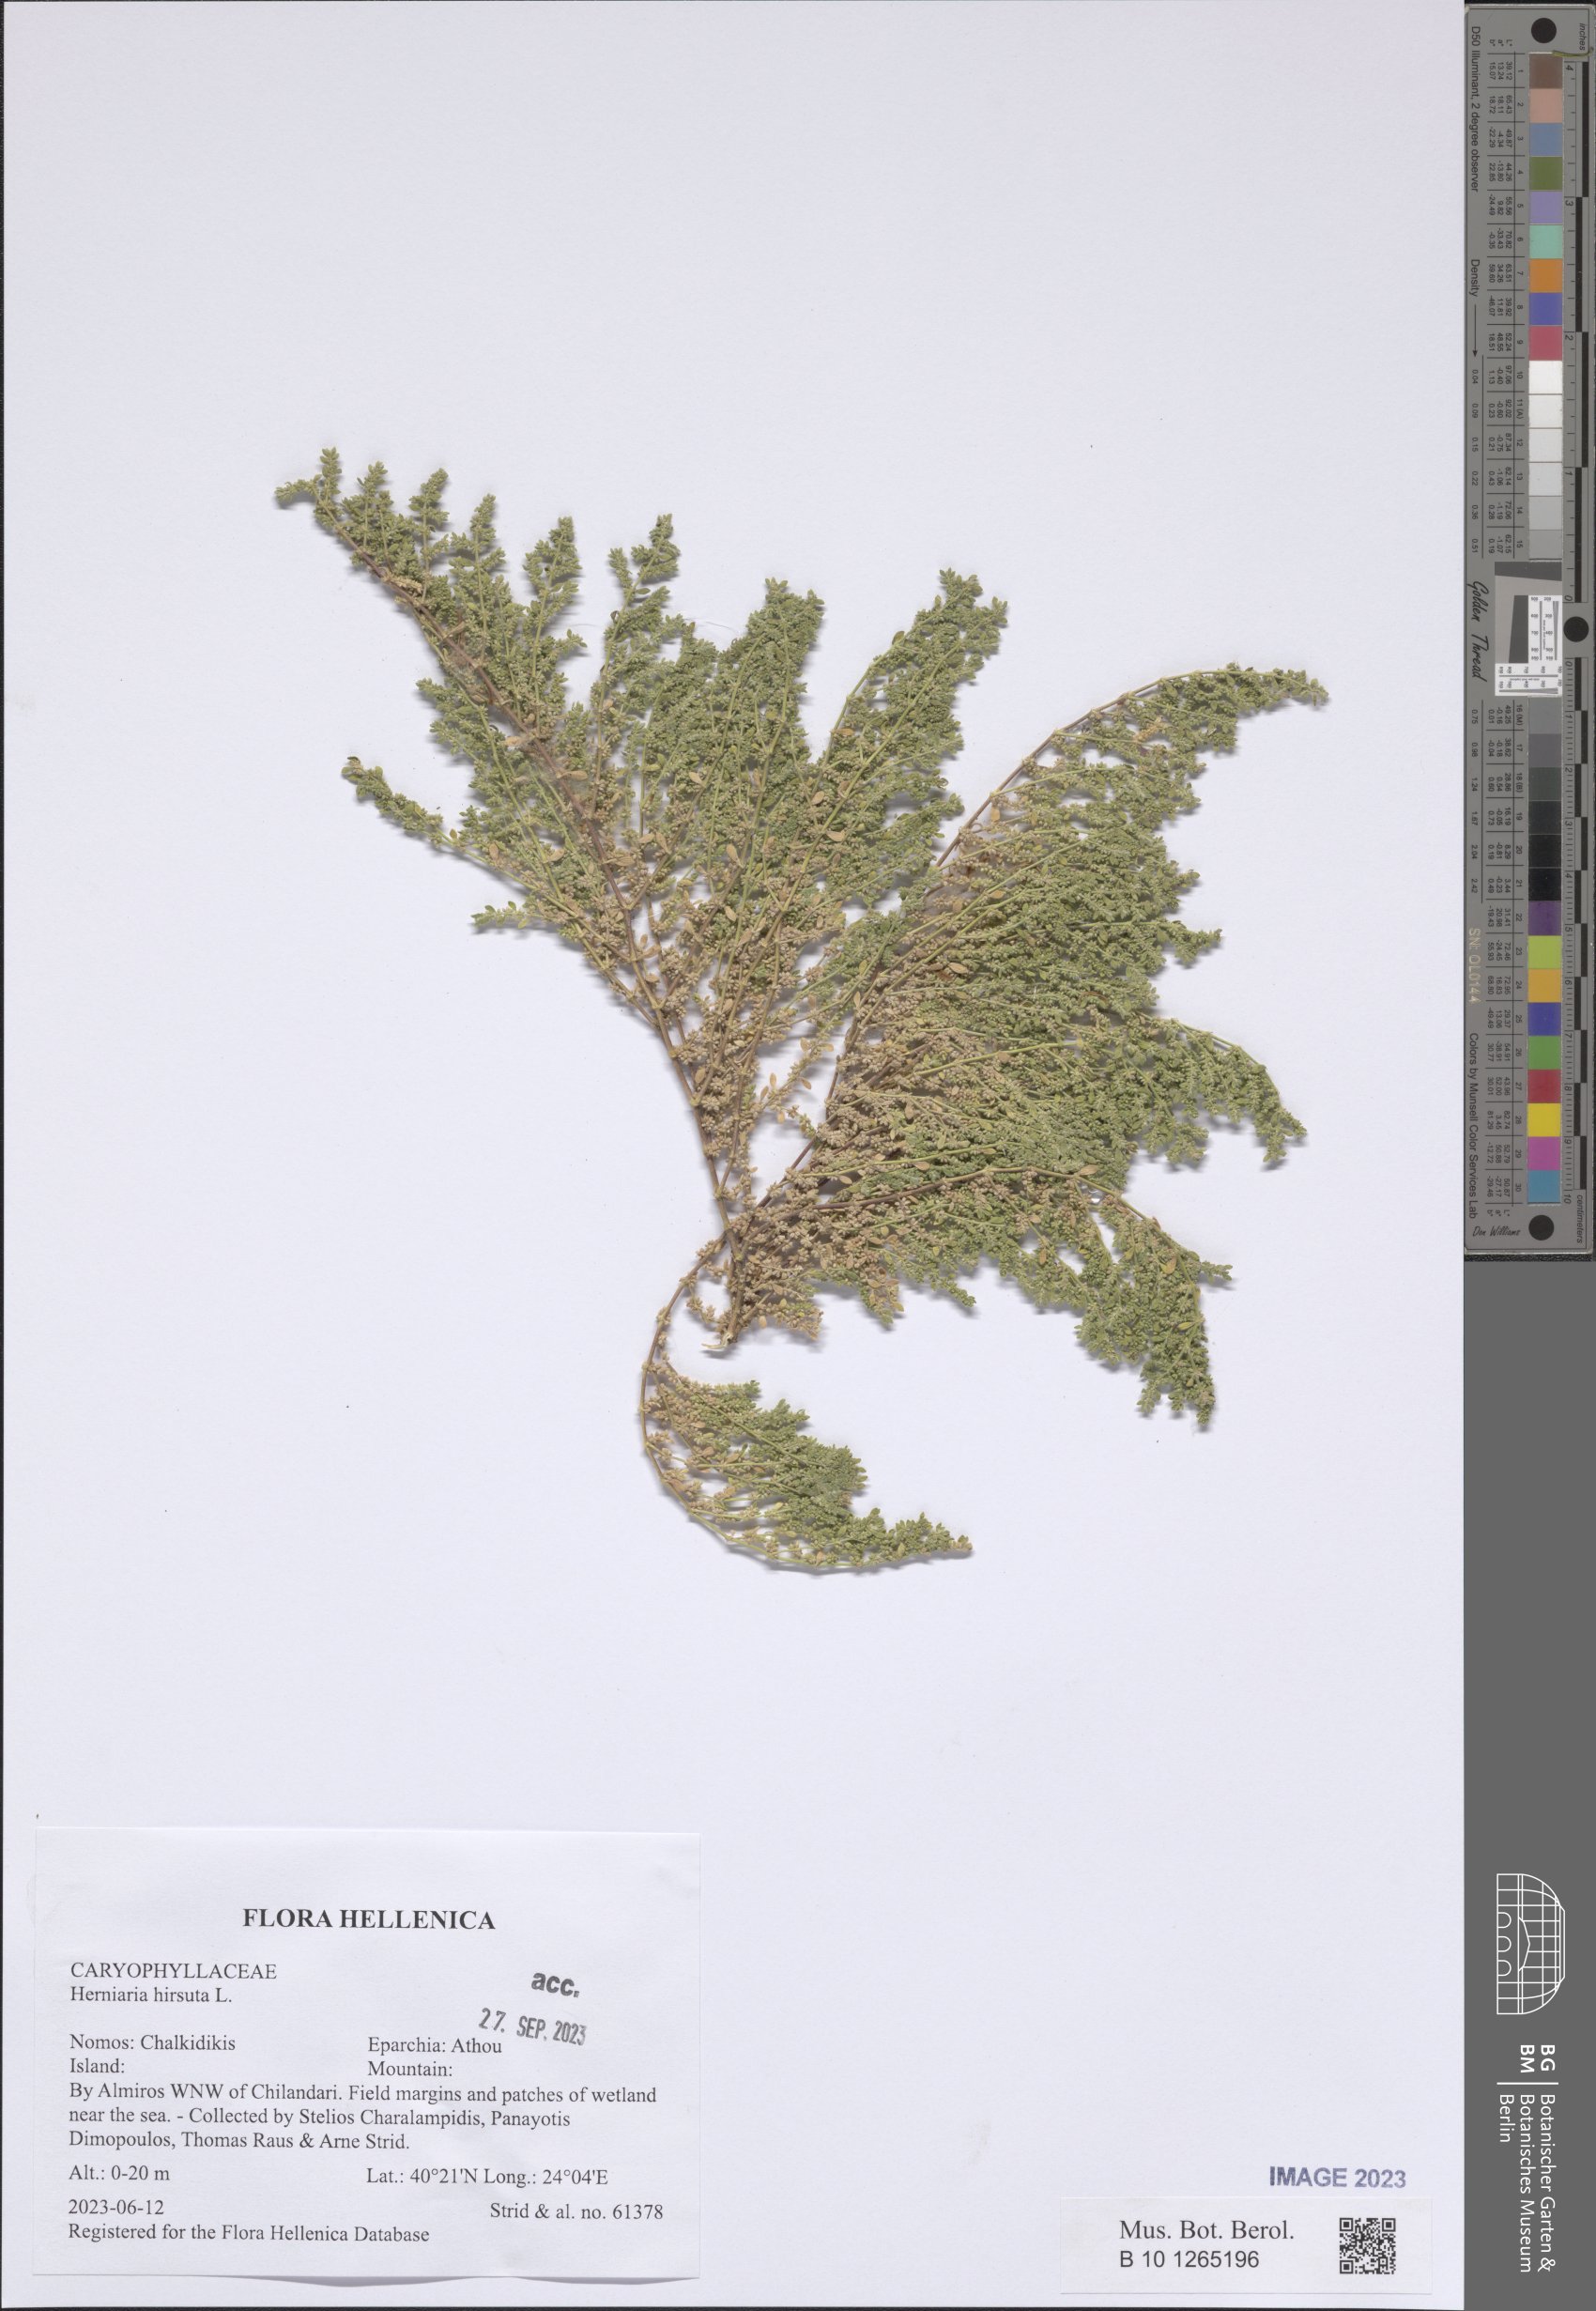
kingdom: Plantae
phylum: Tracheophyta
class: Magnoliopsida
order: Caryophyllales
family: Caryophyllaceae
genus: Herniaria
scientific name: Herniaria hirsuta
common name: Hairy rupturewort
